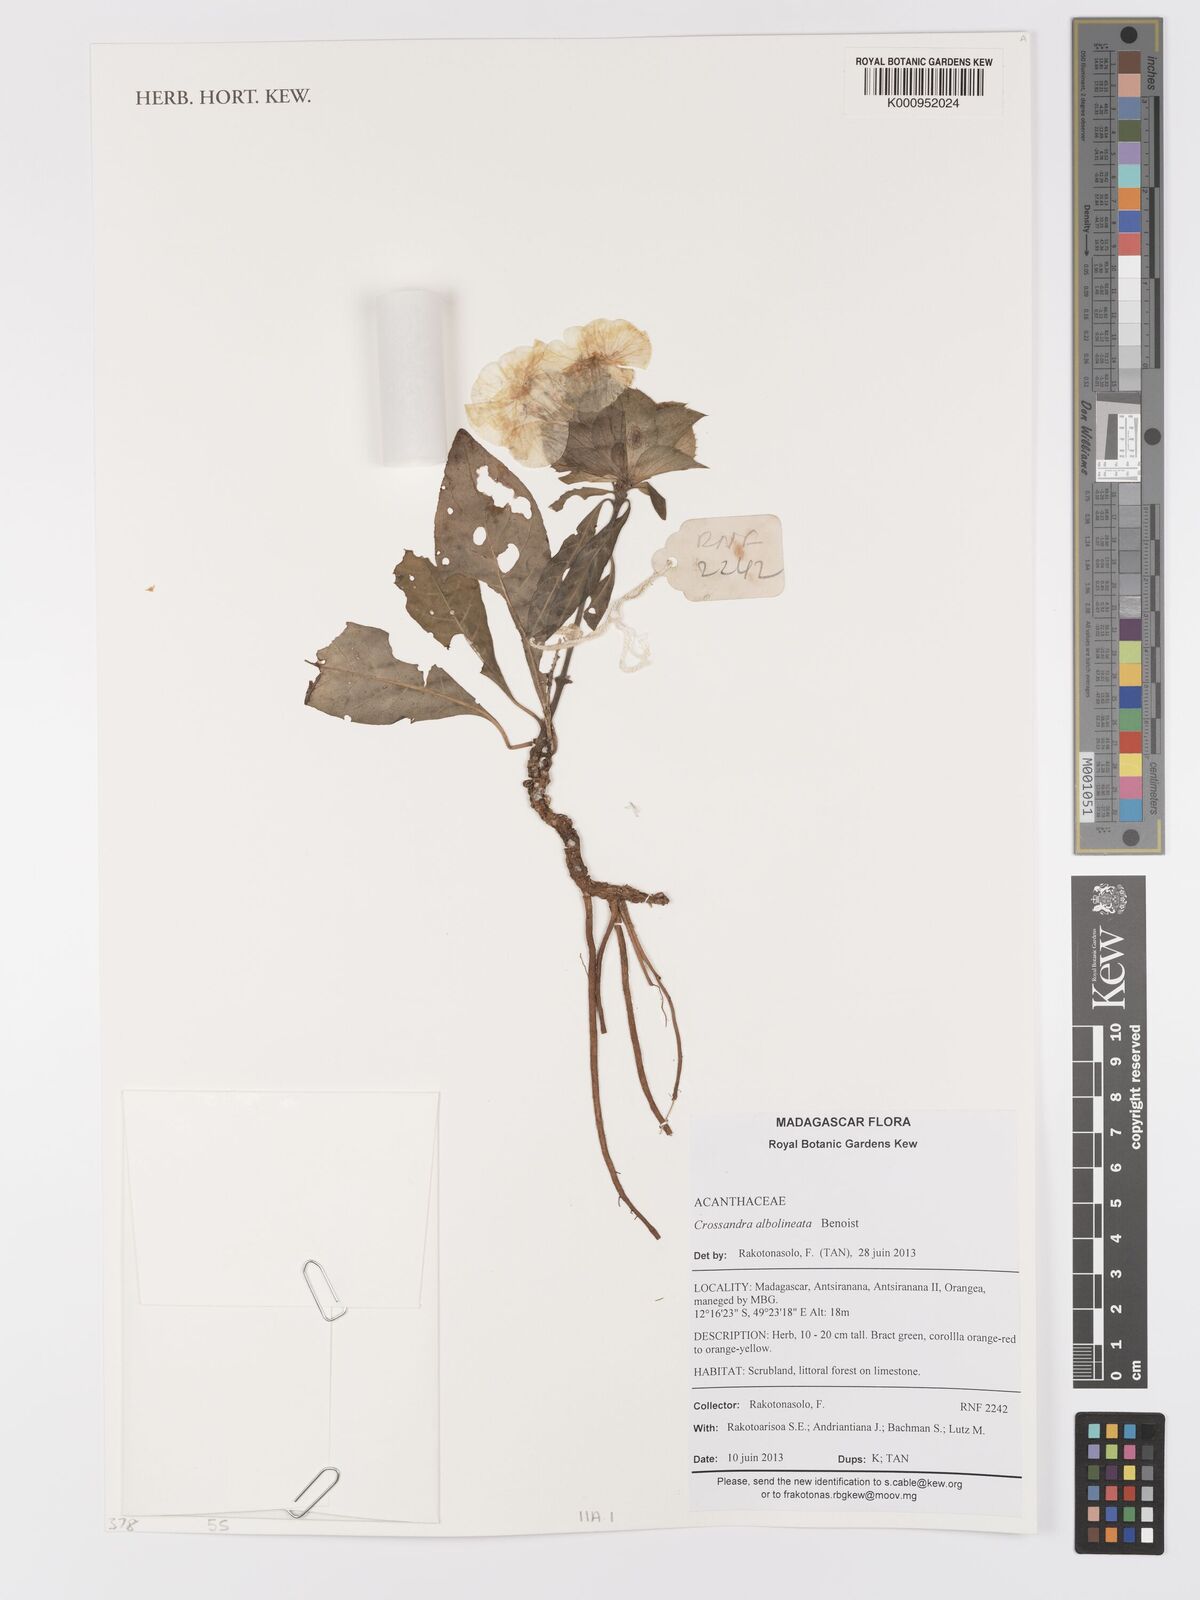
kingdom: Plantae
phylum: Tracheophyta
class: Magnoliopsida
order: Lamiales
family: Acanthaceae
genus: Crossandra
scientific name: Crossandra albolineata
